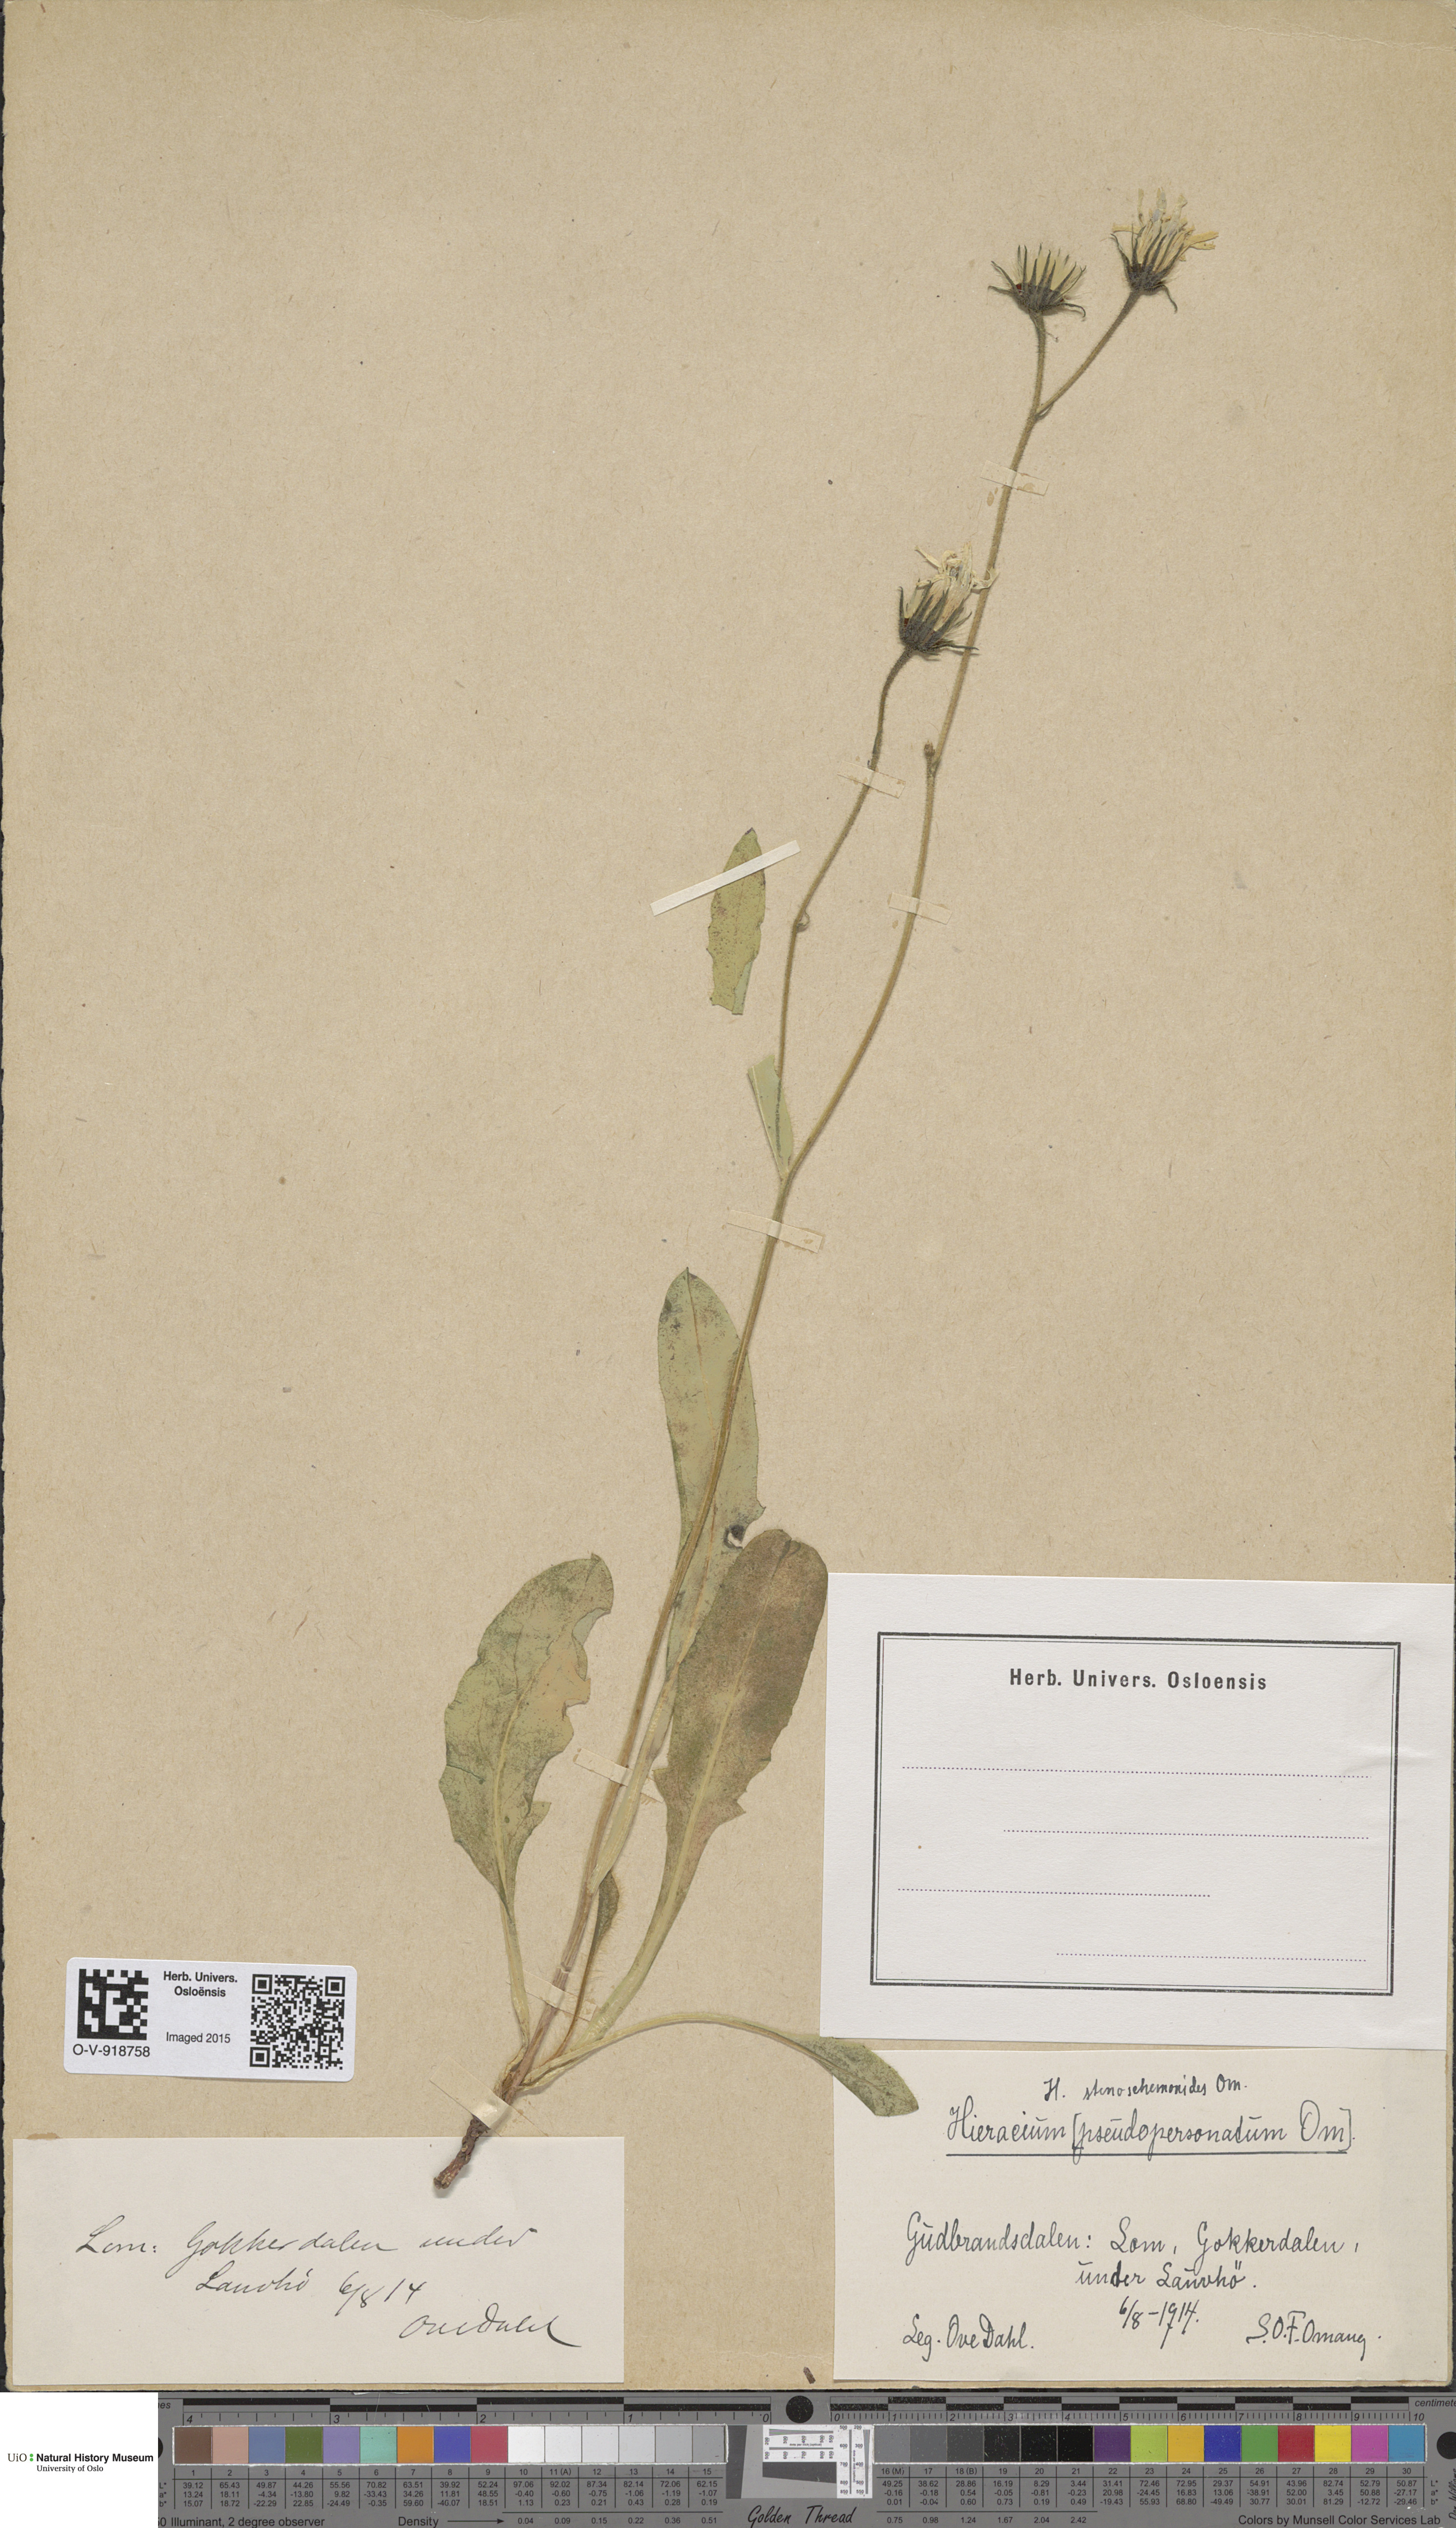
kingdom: Plantae
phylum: Tracheophyta
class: Magnoliopsida
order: Asterales
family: Asteraceae
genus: Hieracium
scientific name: Hieracium
